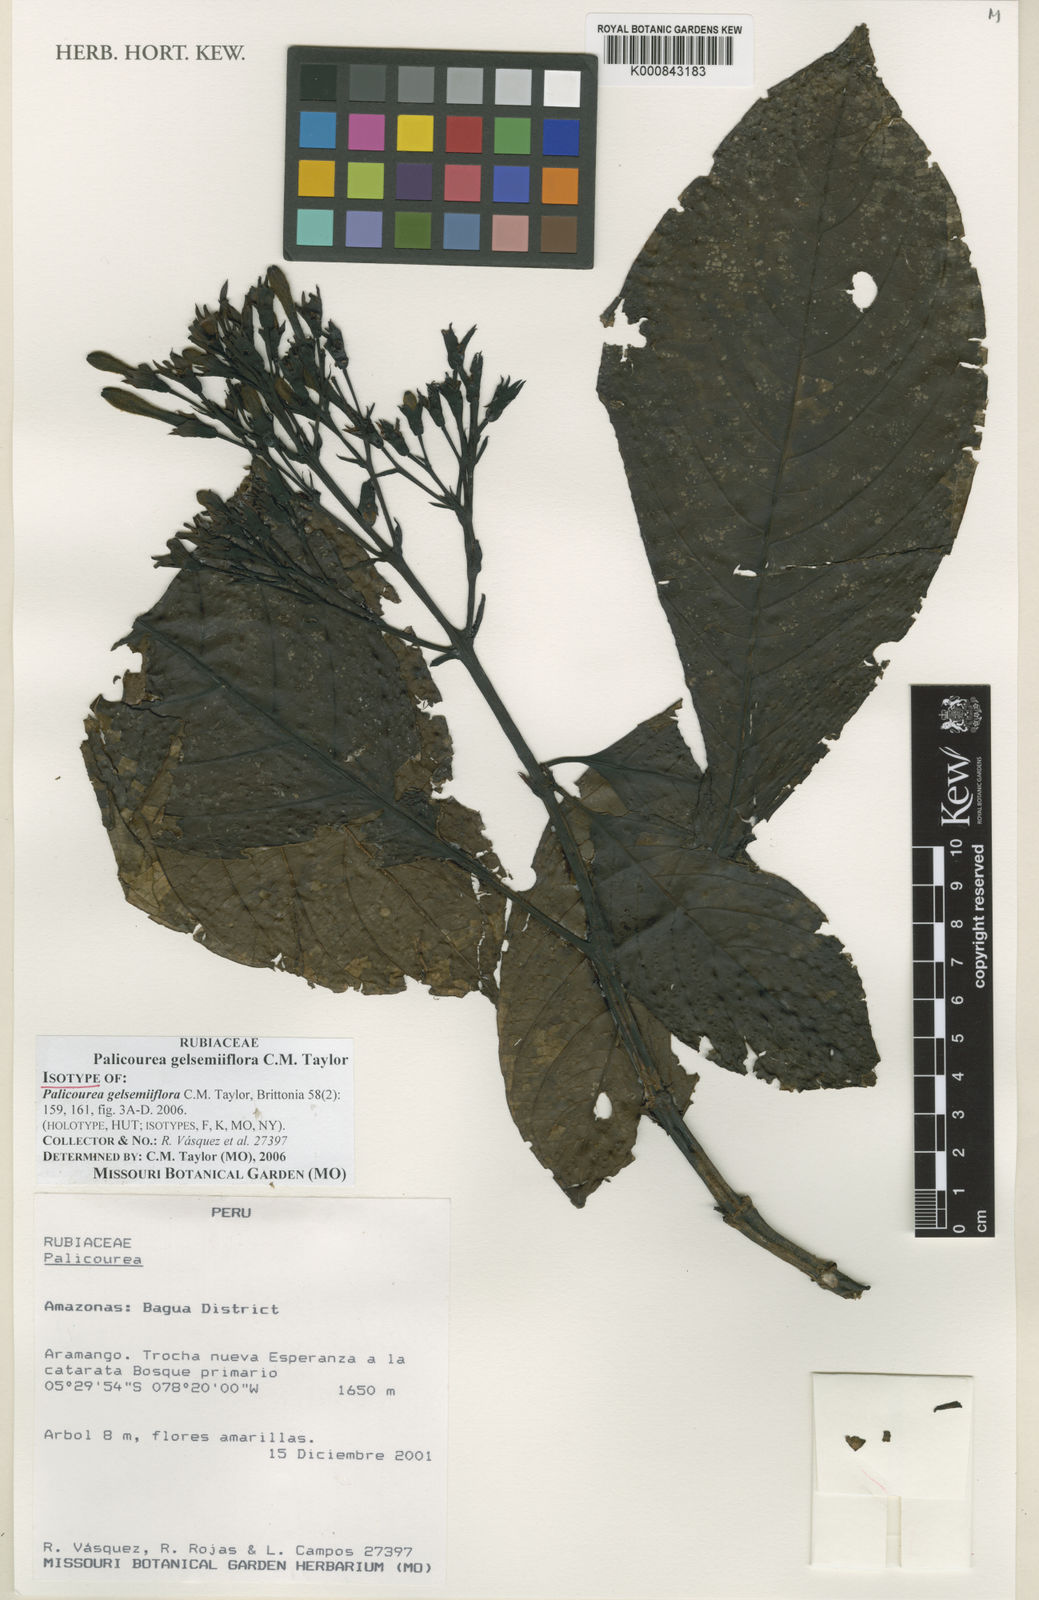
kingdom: Plantae
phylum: Tracheophyta
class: Magnoliopsida
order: Gentianales
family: Rubiaceae
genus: Palicourea
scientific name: Palicourea gelsemiiflora
